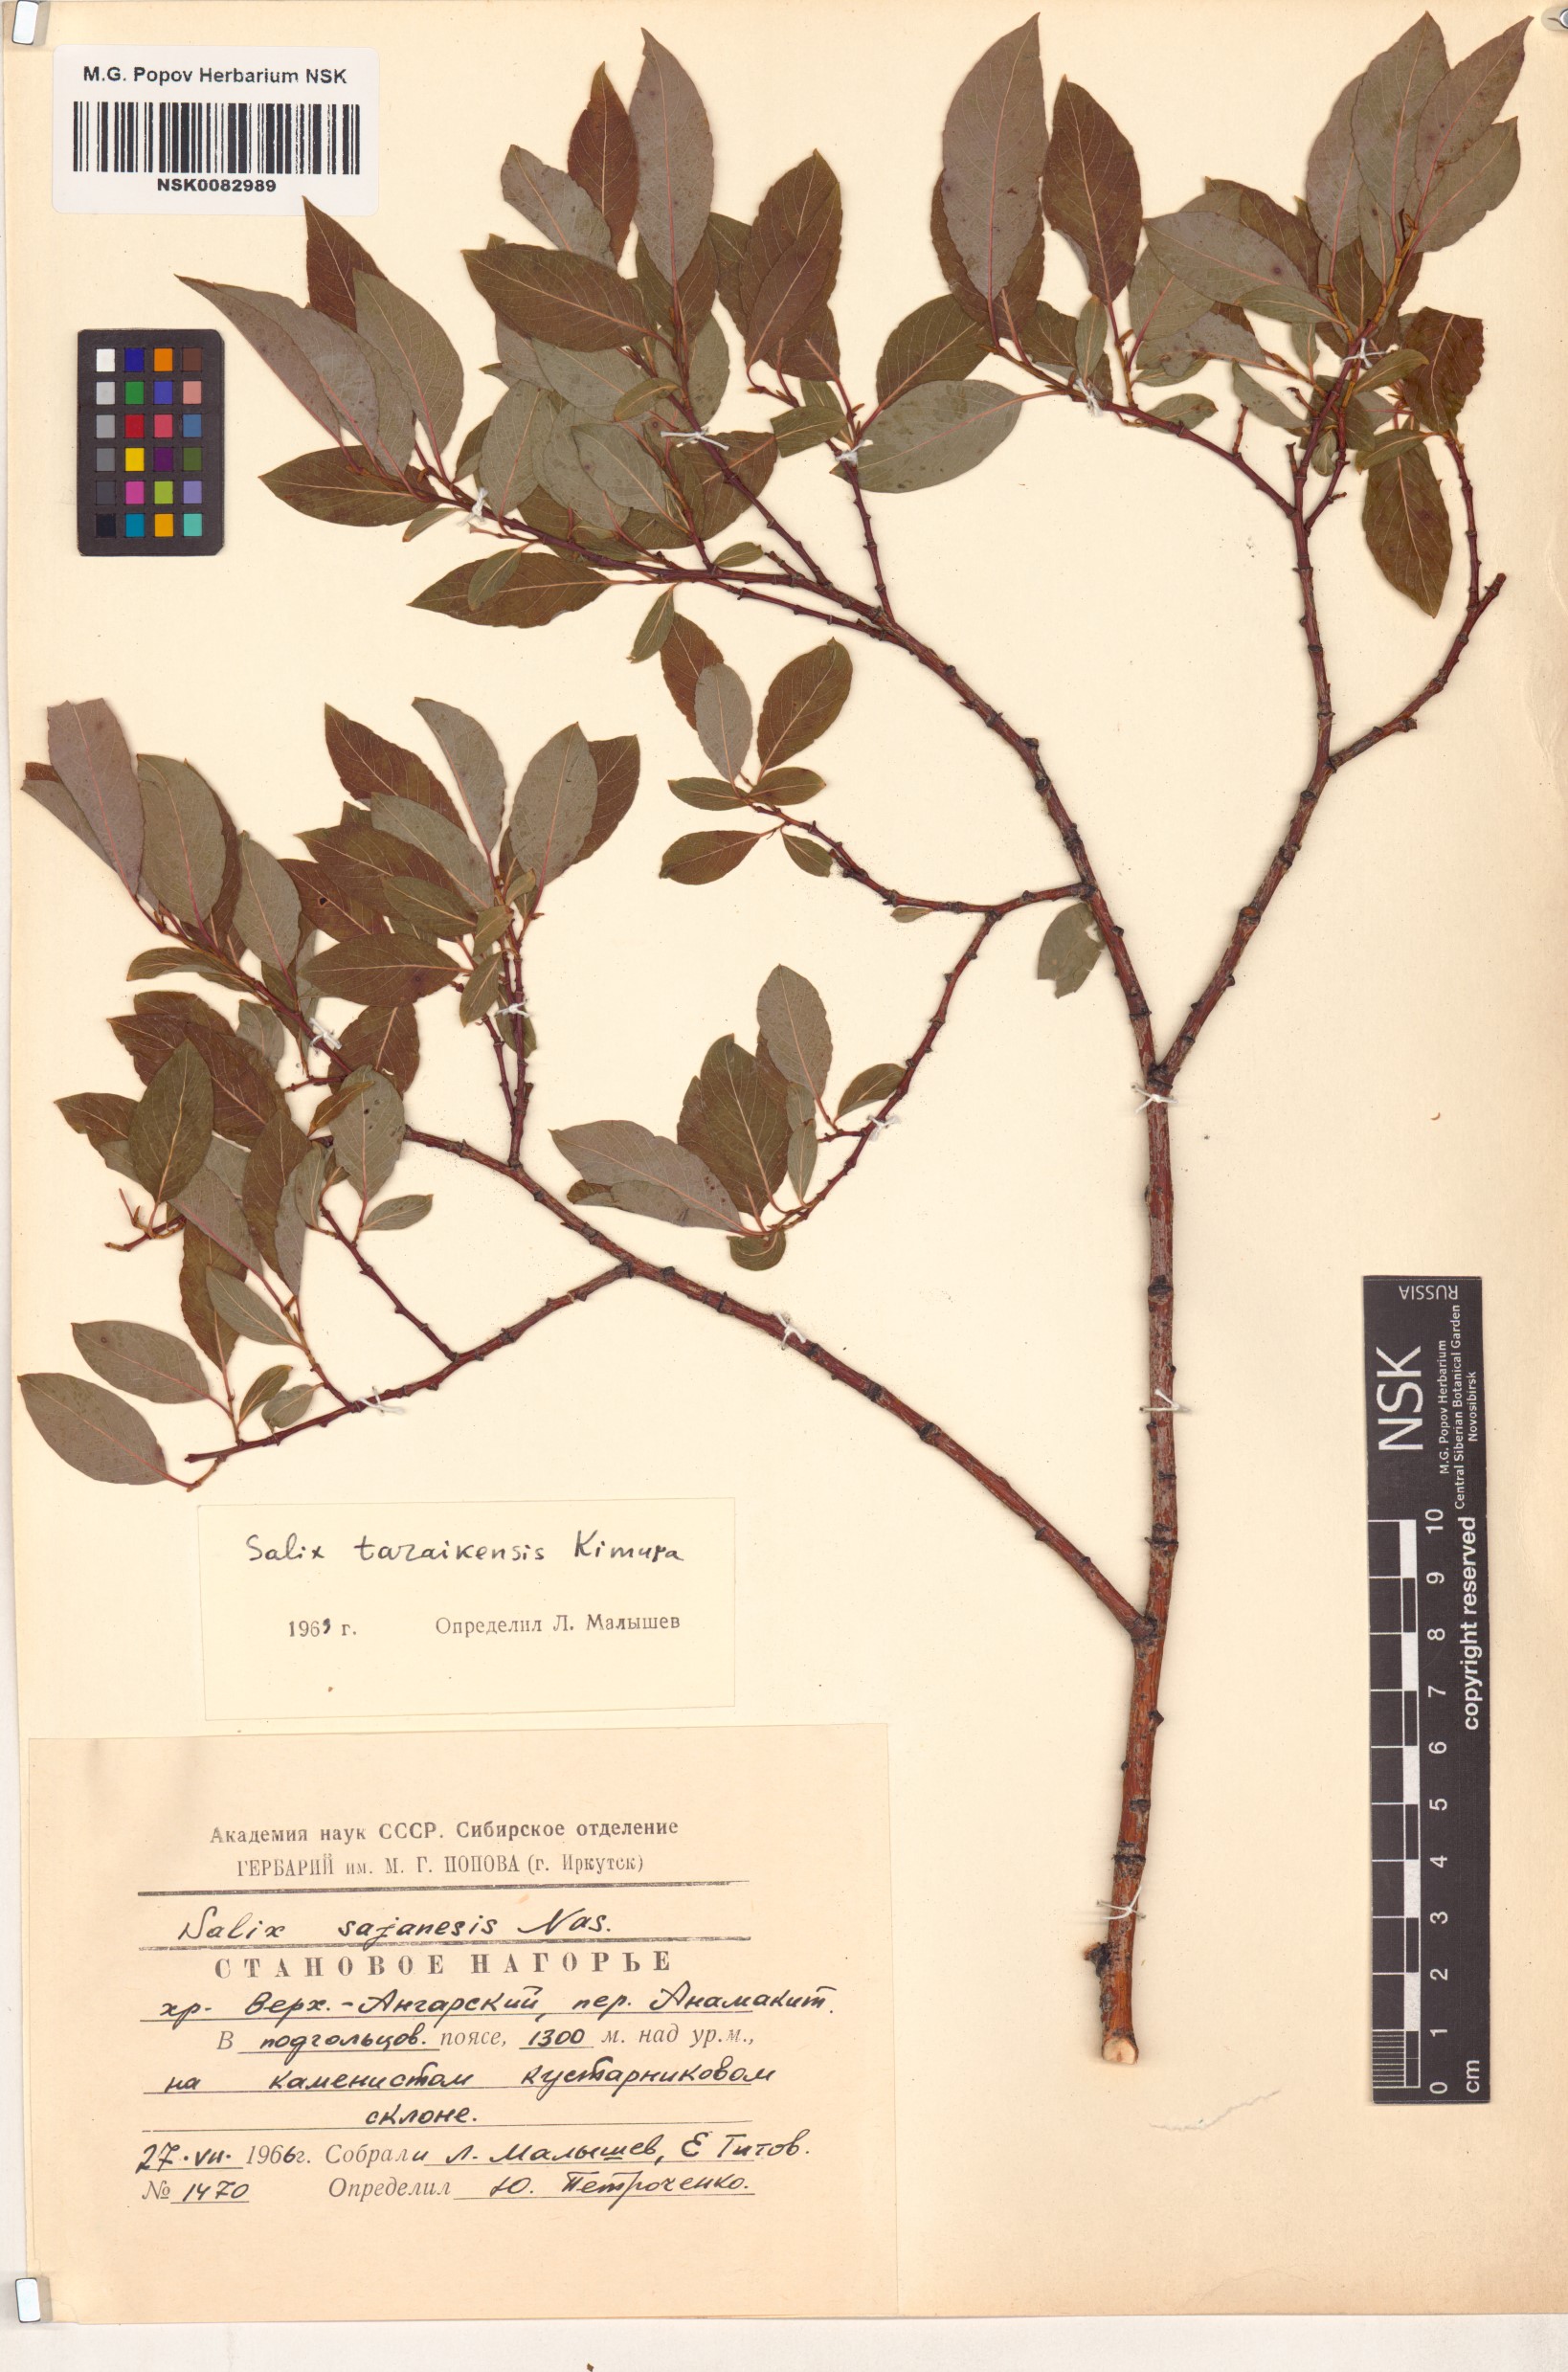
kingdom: Plantae
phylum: Tracheophyta
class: Magnoliopsida
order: Malpighiales
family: Salicaceae
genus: Salix
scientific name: Salix taraikensis
